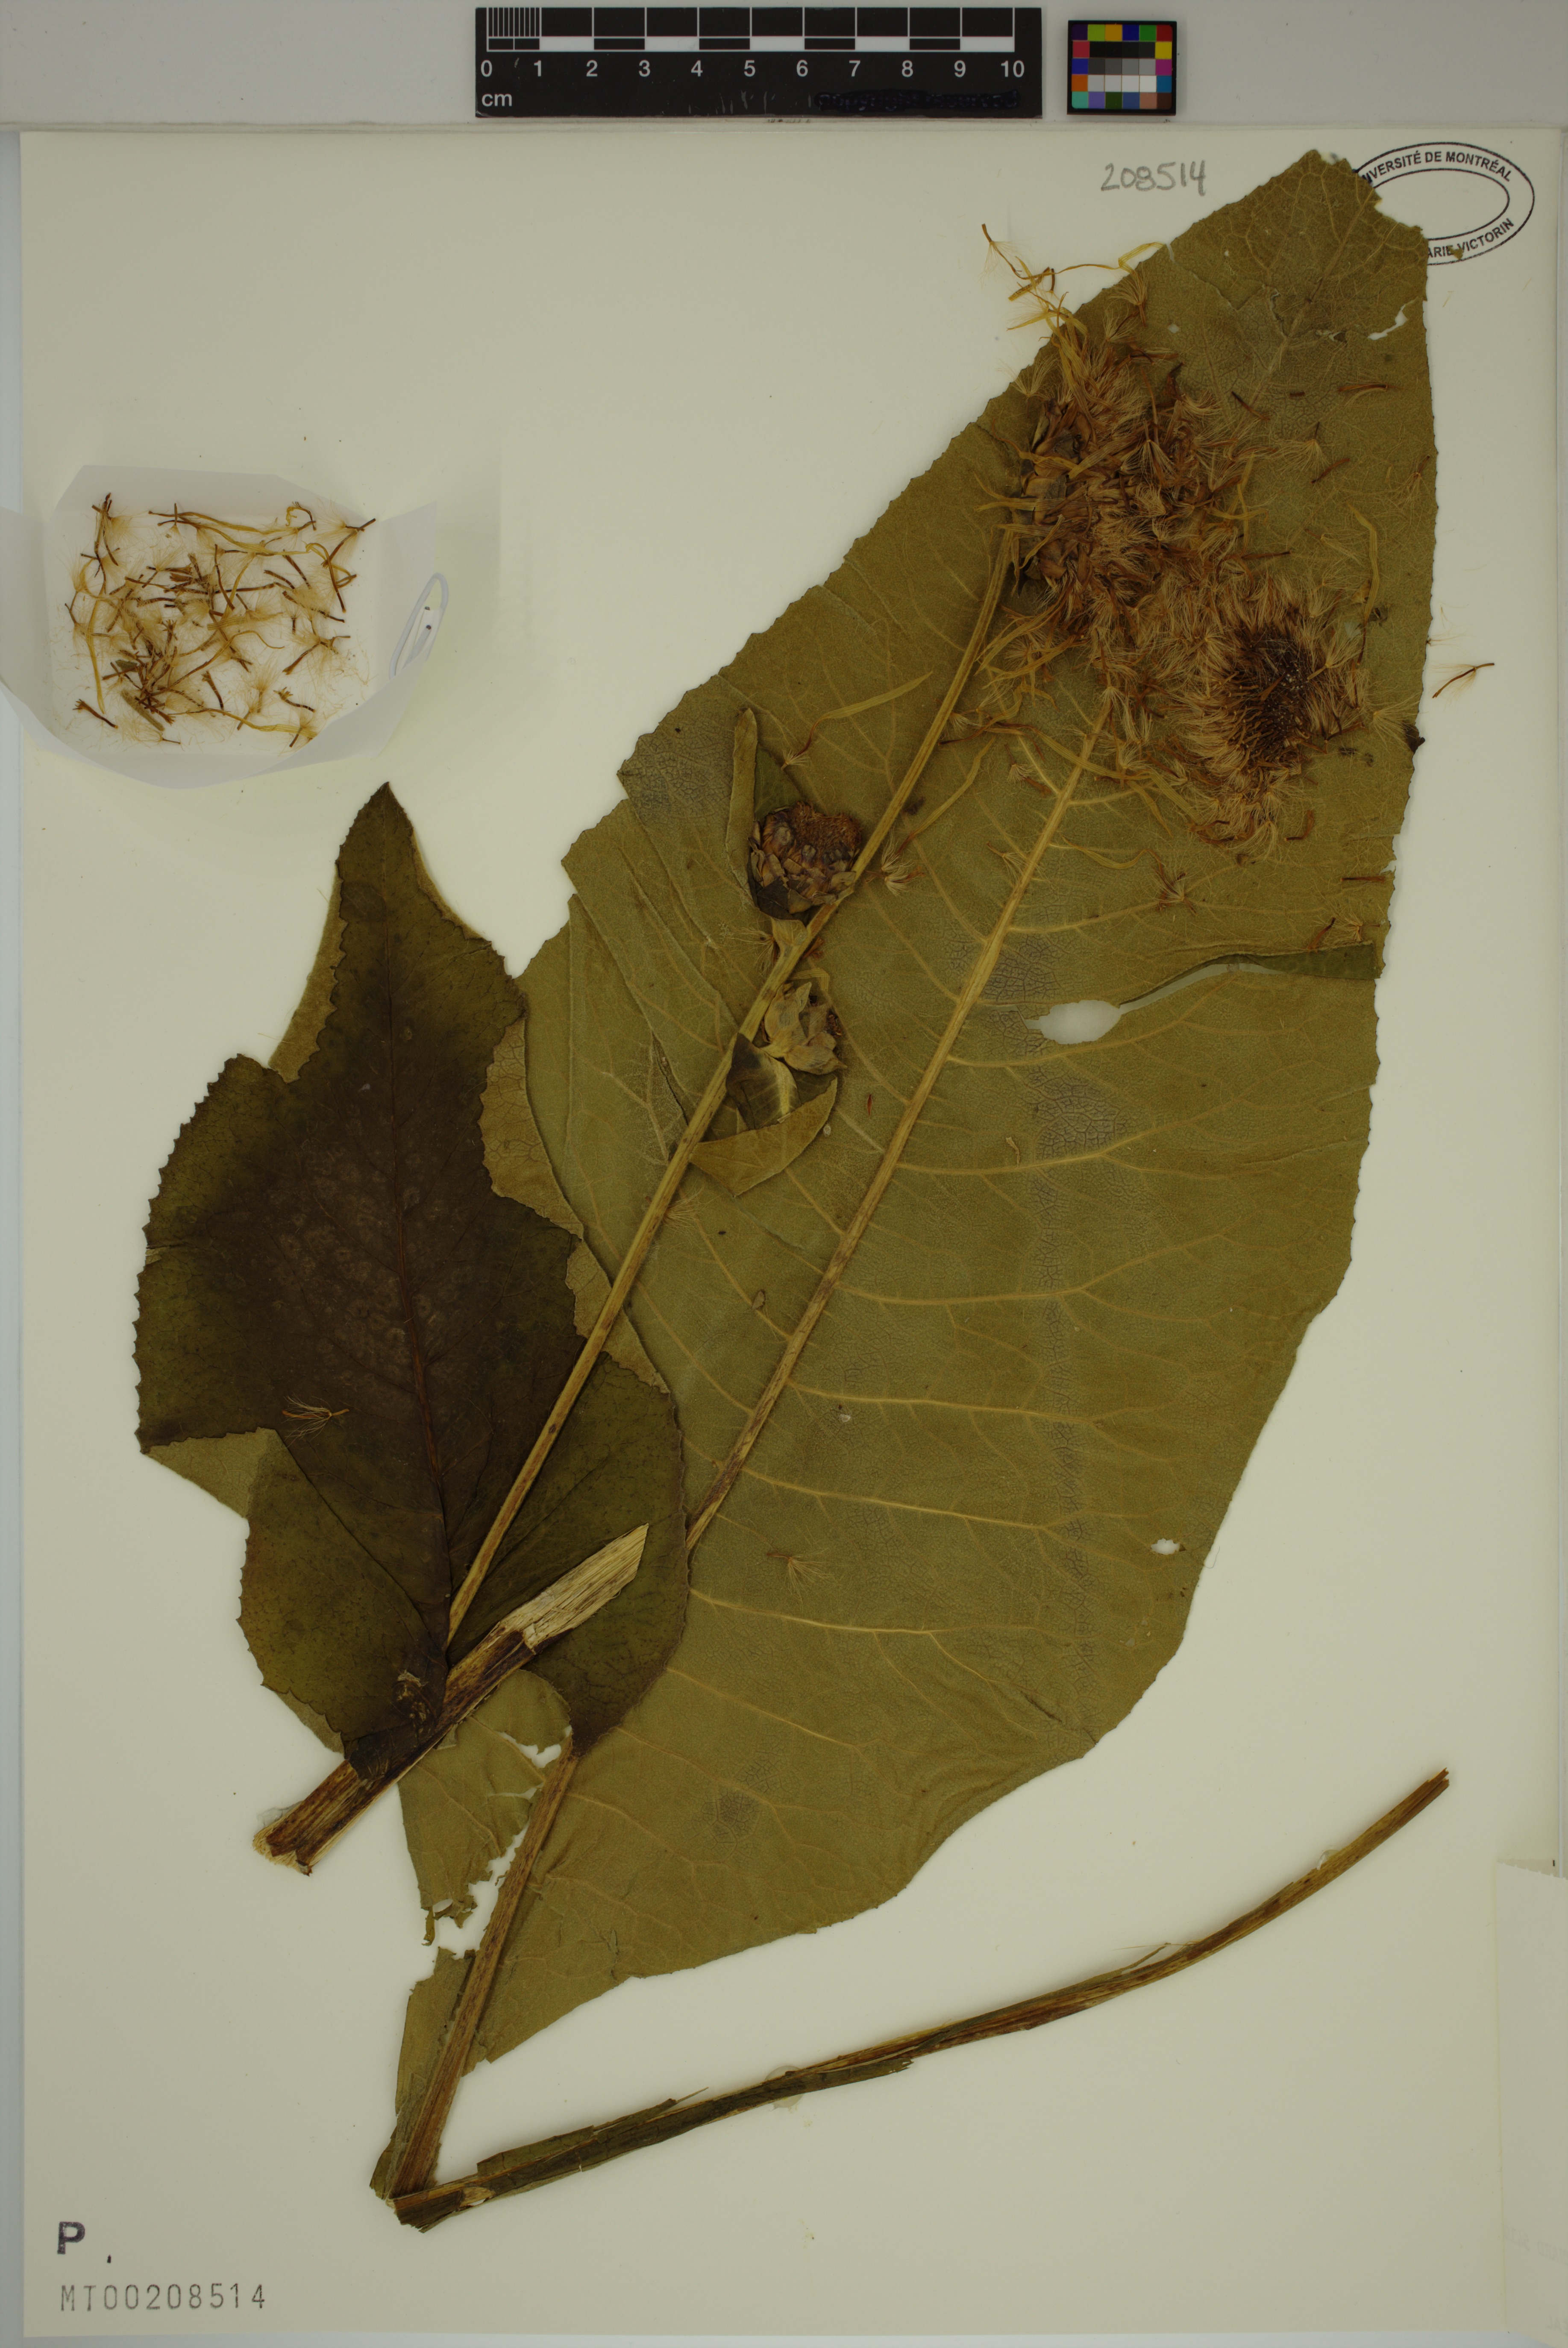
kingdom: Plantae
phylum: Tracheophyta
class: Magnoliopsida
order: Asterales
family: Asteraceae
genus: Inula
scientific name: Inula helenium
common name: Elecampane
